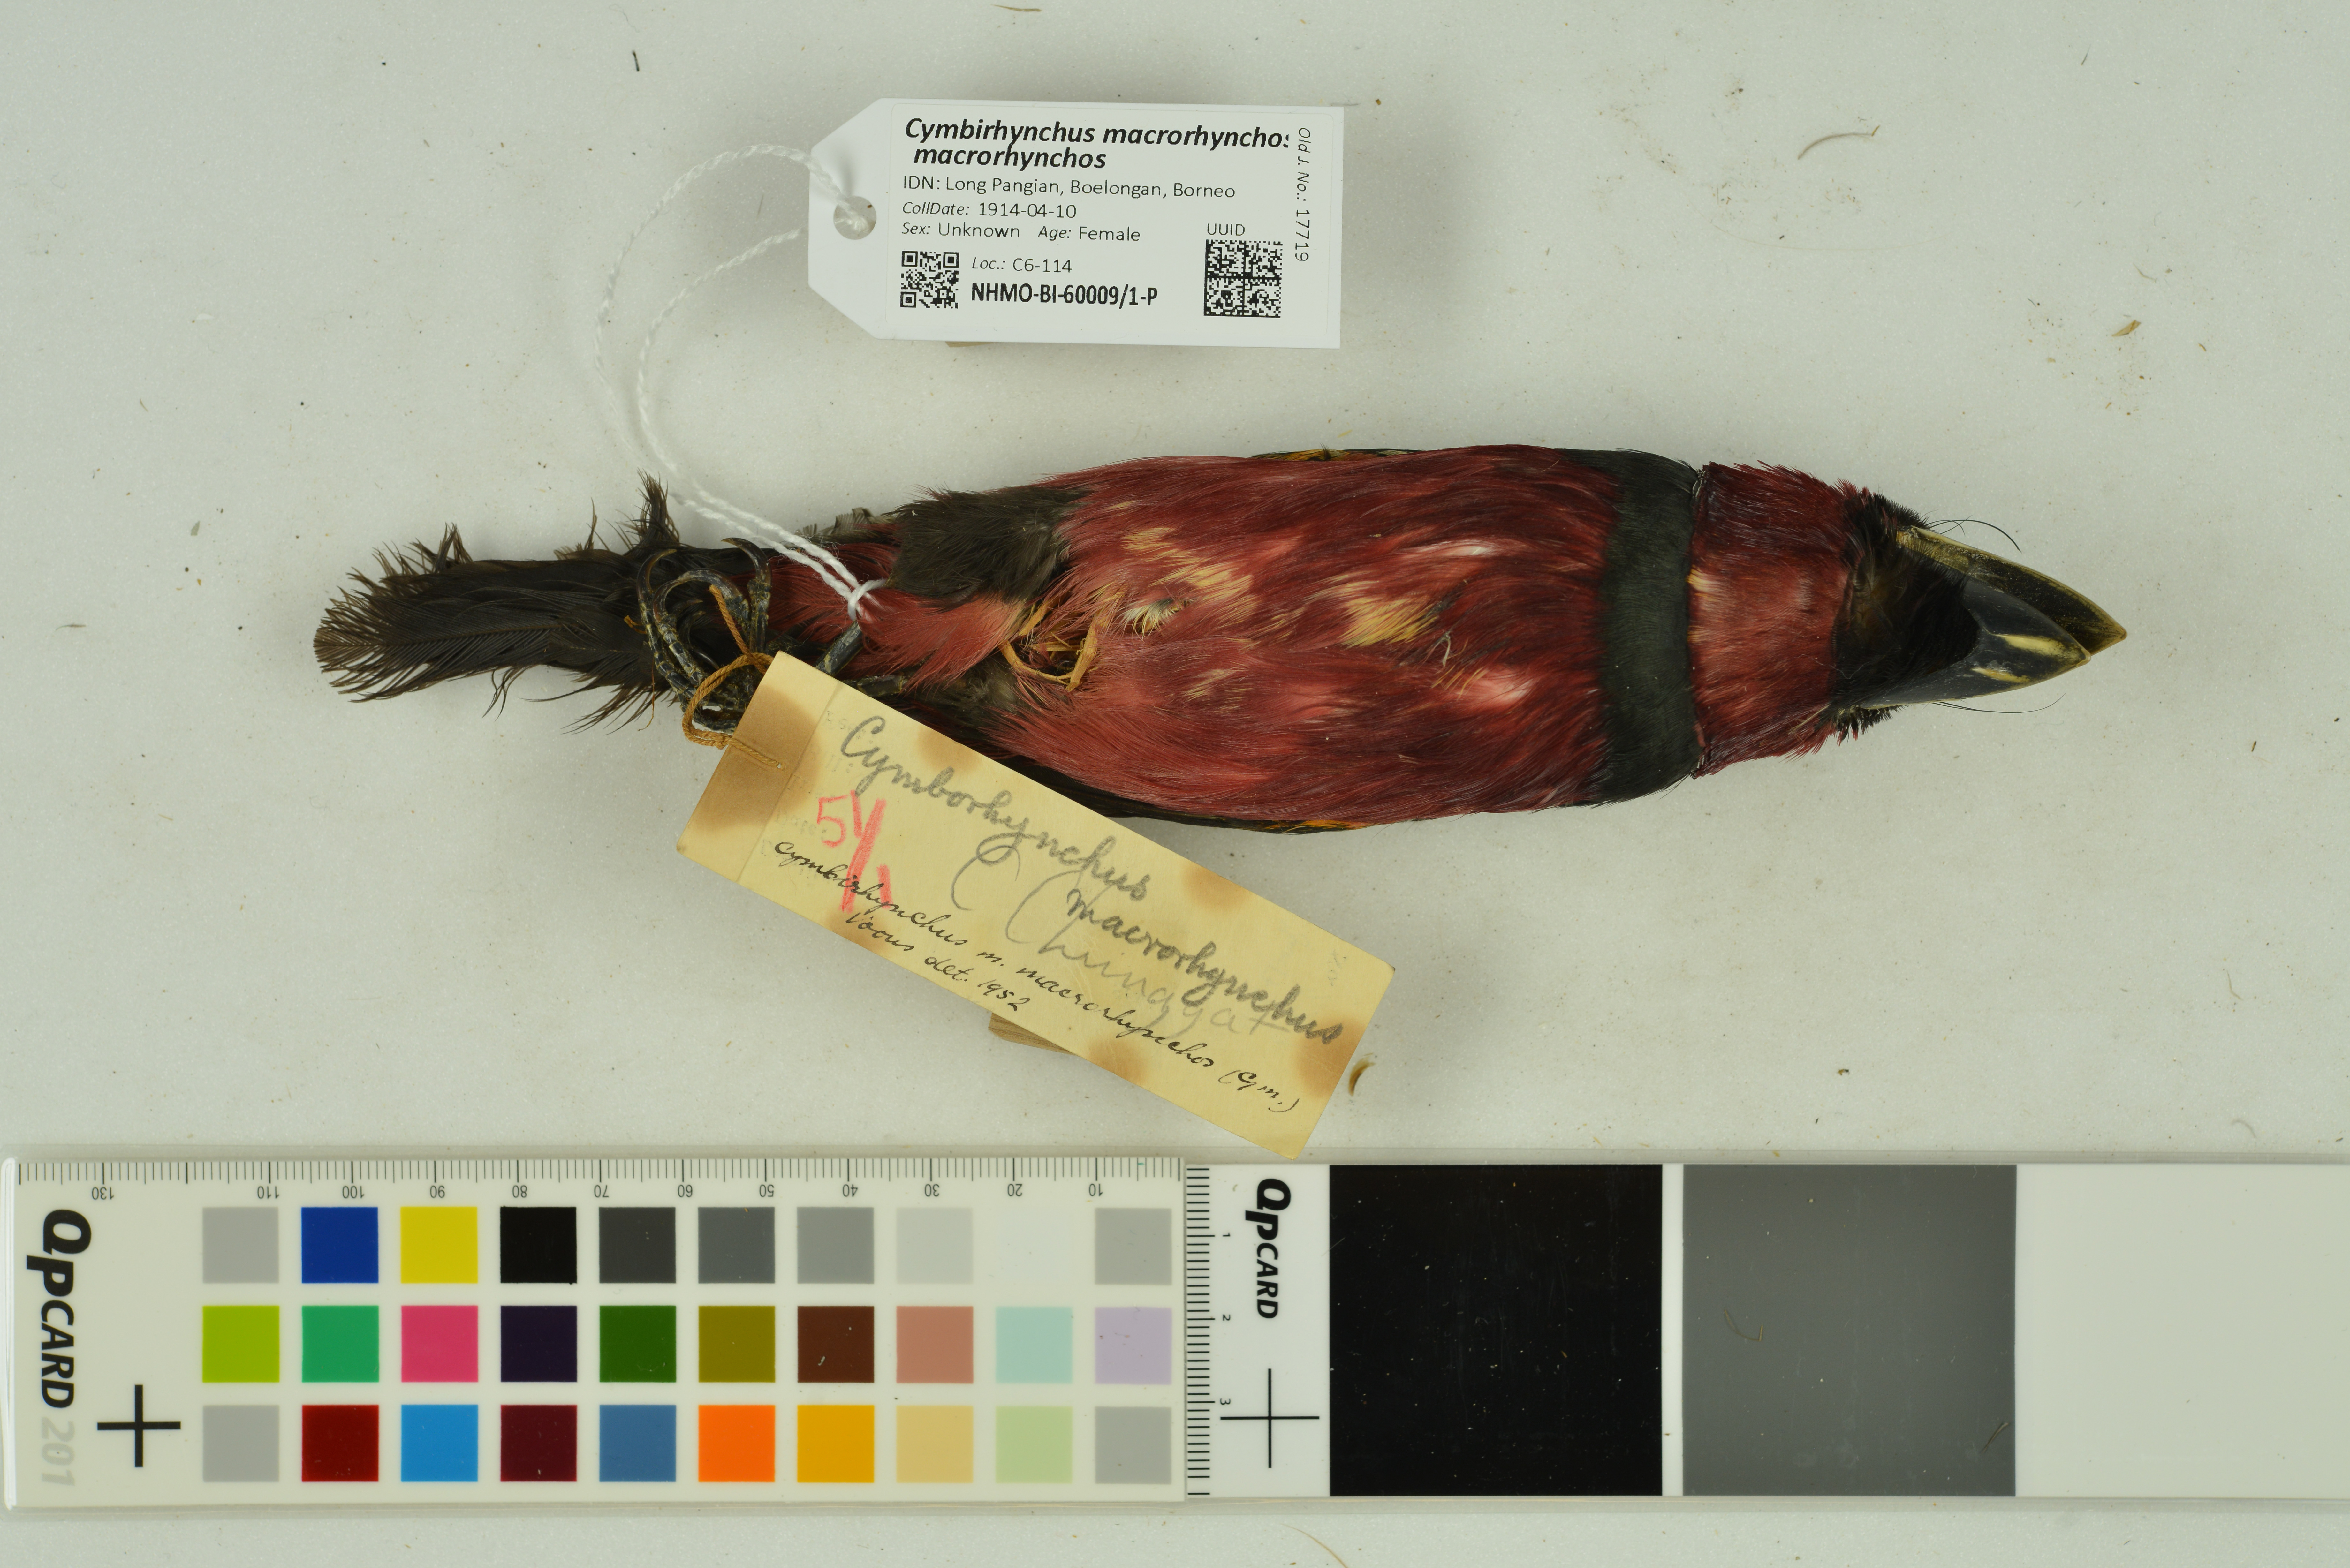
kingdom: Animalia
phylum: Chordata
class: Aves
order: Passeriformes
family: Eurylaimidae
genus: Cymbirhynchus
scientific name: Cymbirhynchus macrorhynchos
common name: Black-and-red broadbill
